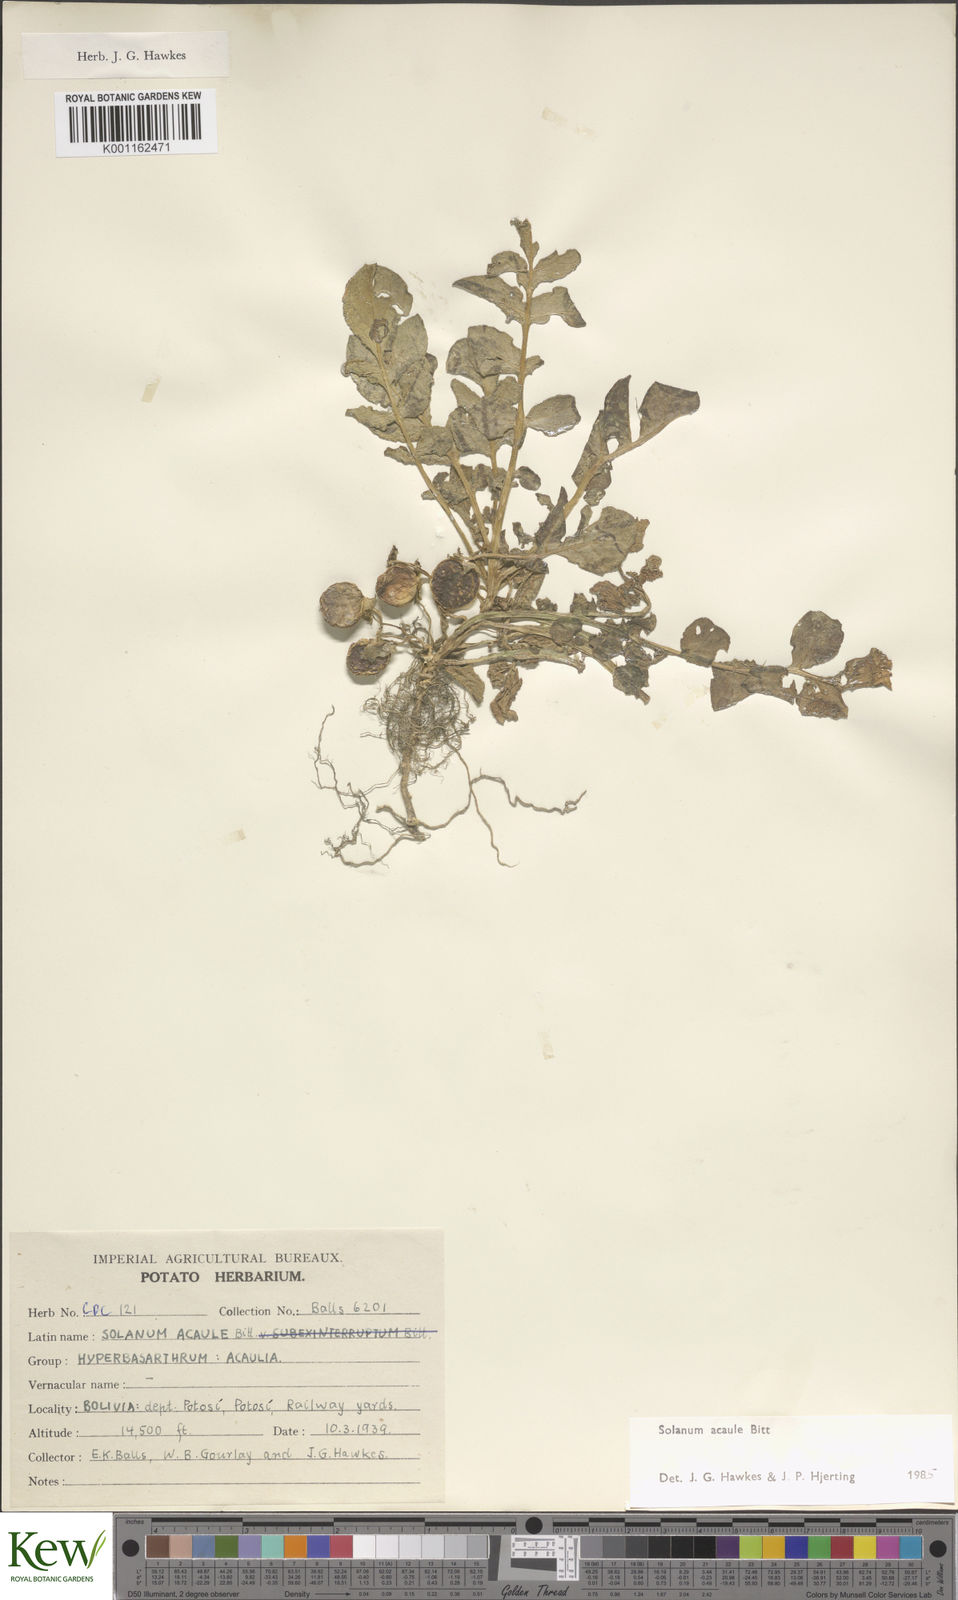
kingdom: Plantae
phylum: Tracheophyta
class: Magnoliopsida
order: Solanales
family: Solanaceae
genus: Solanum
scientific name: Solanum acaule
